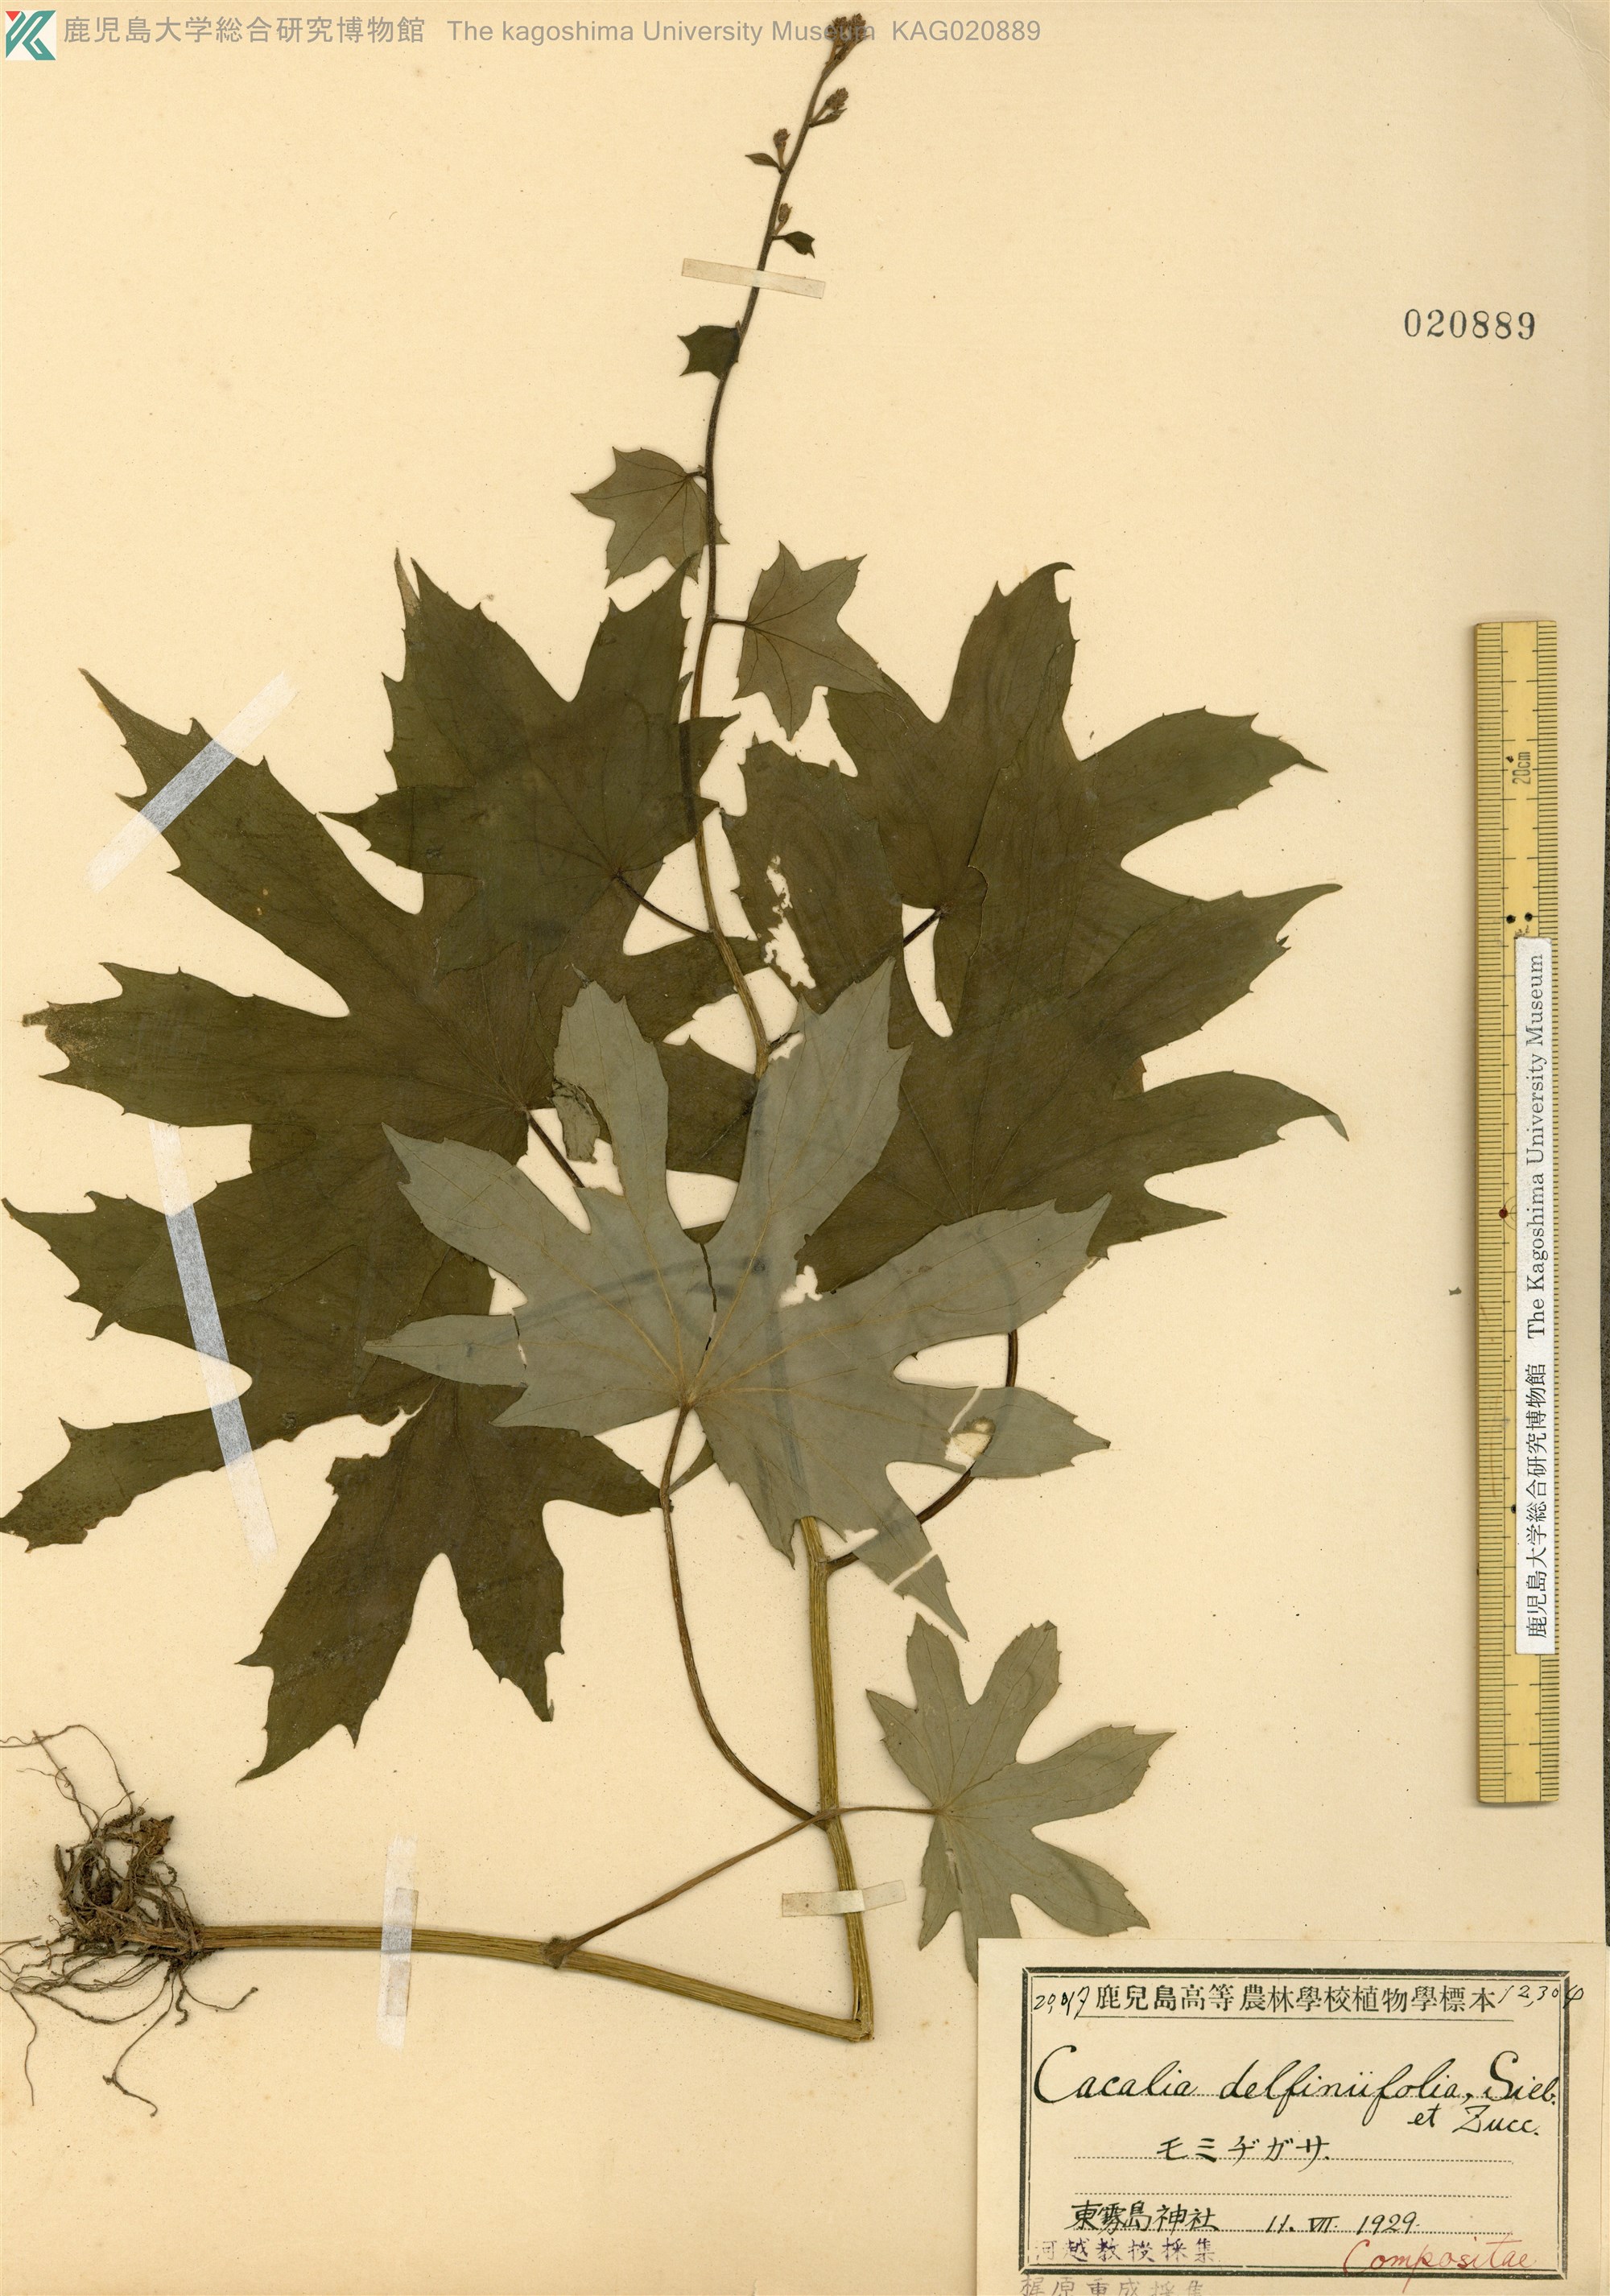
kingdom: Plantae
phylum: Tracheophyta
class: Magnoliopsida
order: Asterales
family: Asteraceae
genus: Japonicalia
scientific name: Japonicalia delphiniifolia
